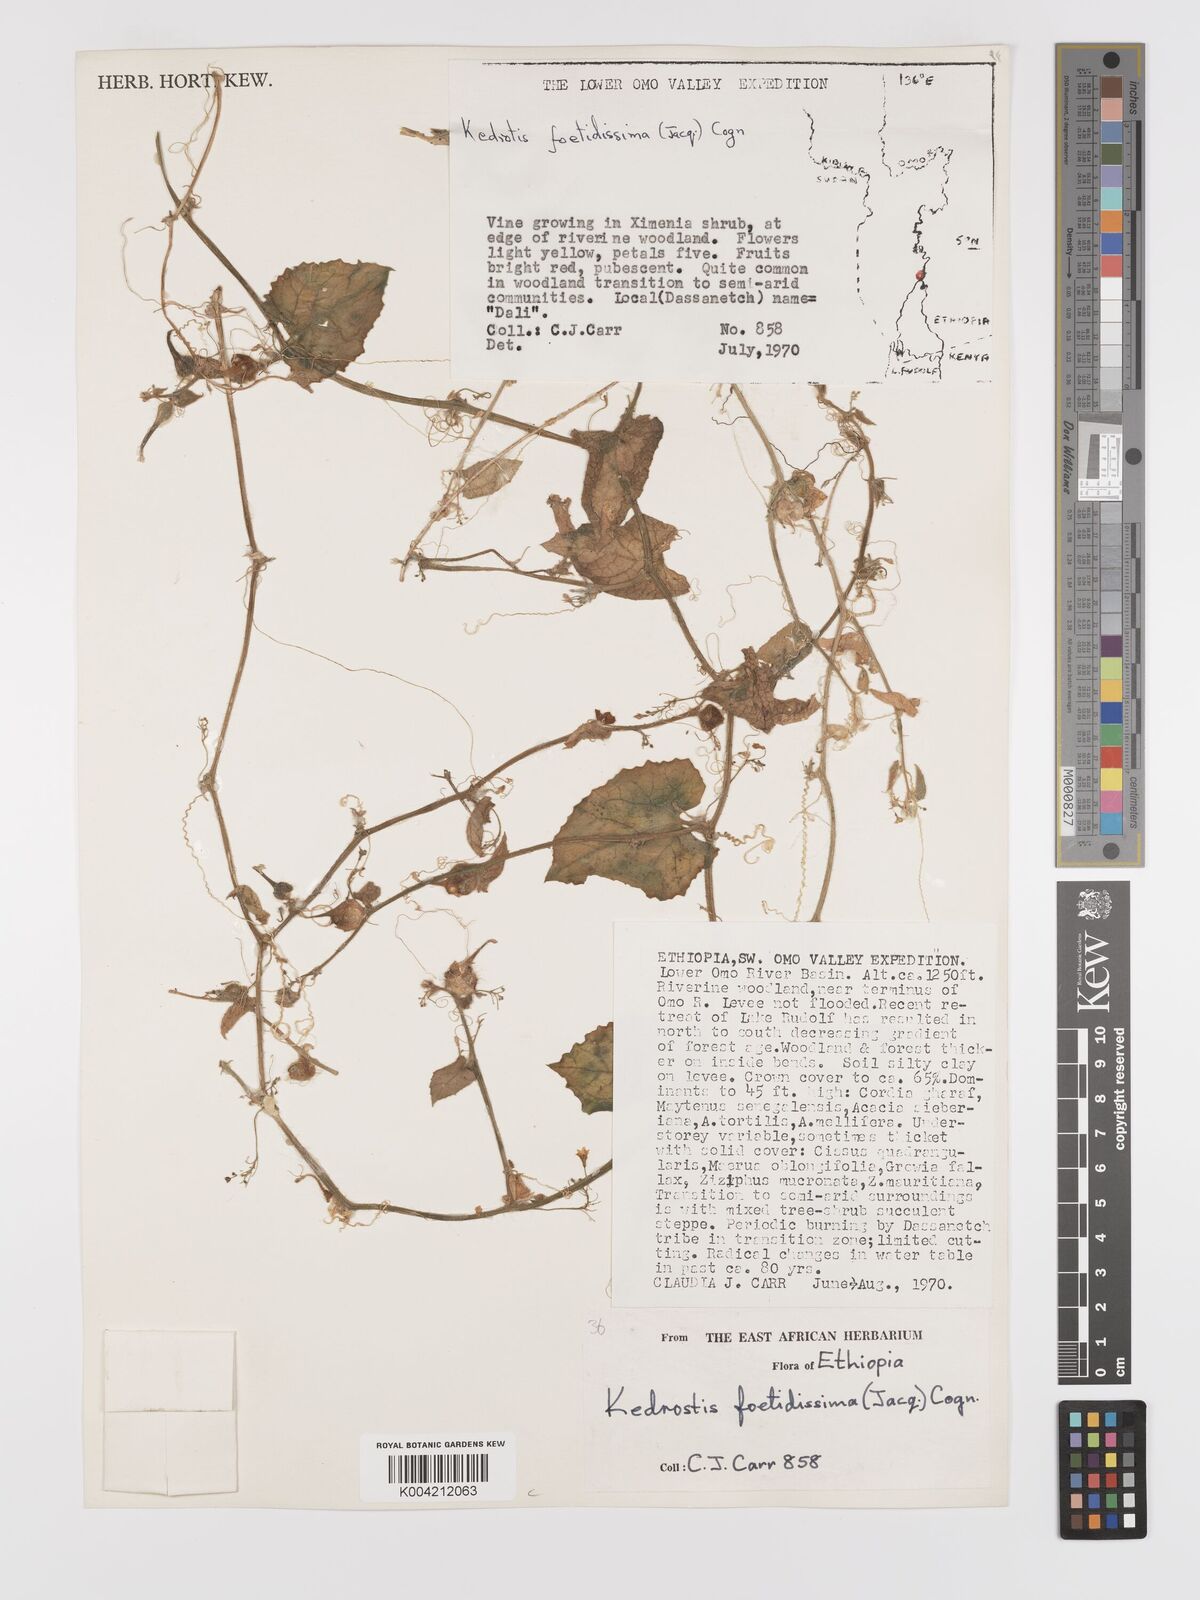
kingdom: Plantae
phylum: Tracheophyta
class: Magnoliopsida
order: Cucurbitales
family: Cucurbitaceae
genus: Kedrostis
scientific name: Kedrostis foetidissima
